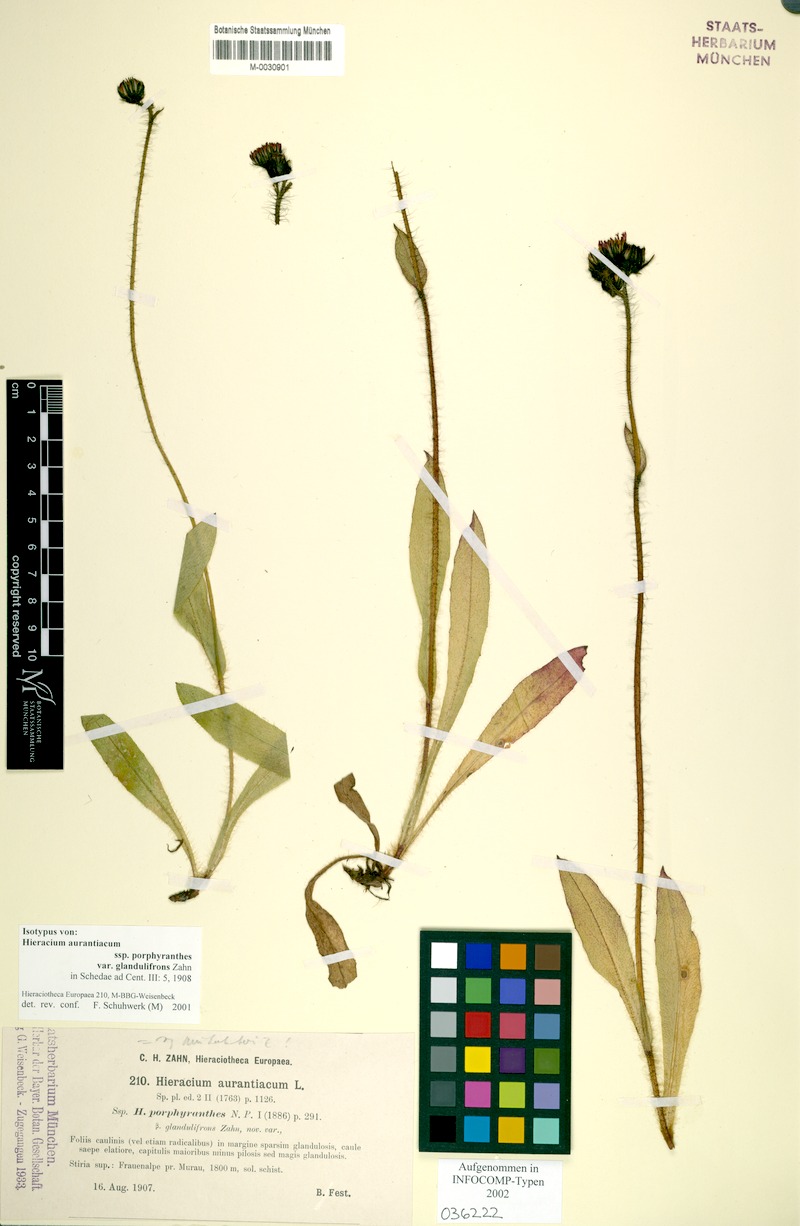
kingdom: Plantae
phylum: Tracheophyta
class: Magnoliopsida
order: Asterales
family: Asteraceae
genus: Pilosella
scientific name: Pilosella aurantiaca
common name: Fox-and-cubs
